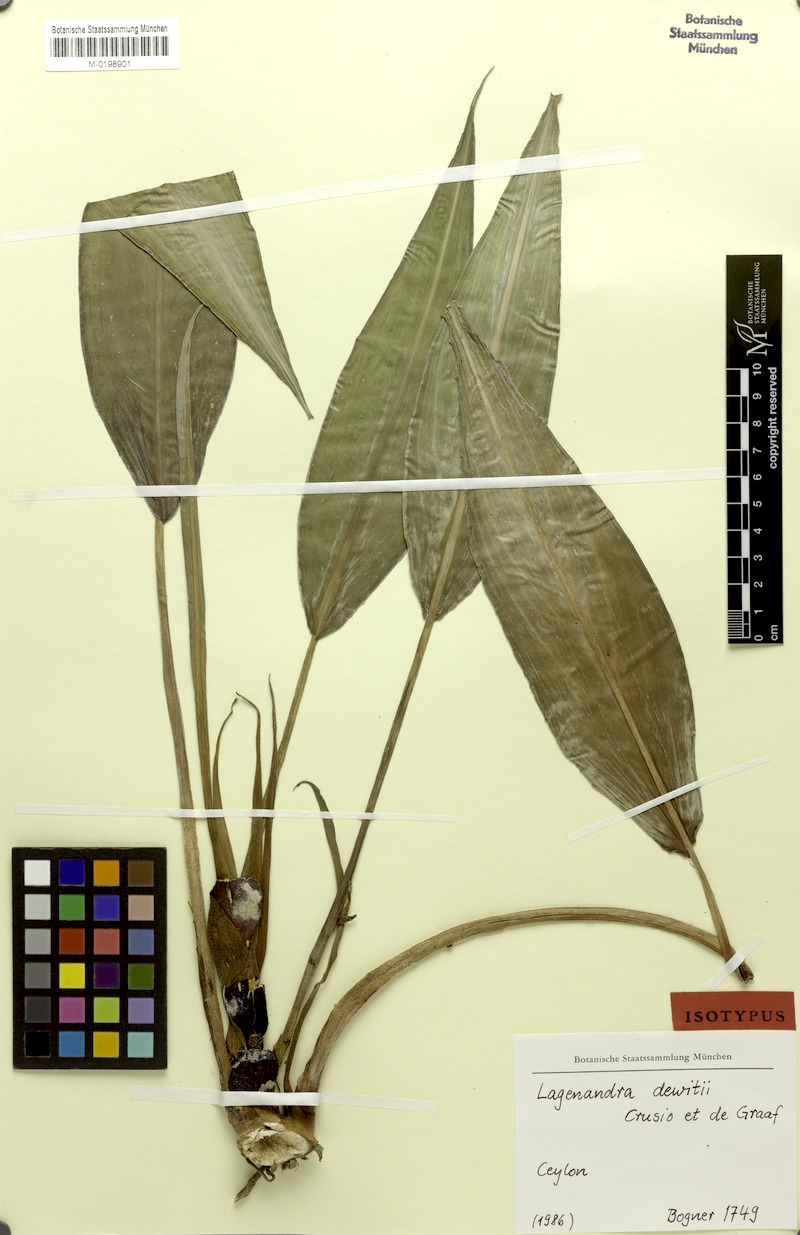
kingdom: Plantae
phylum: Tracheophyta
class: Liliopsida
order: Alismatales
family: Araceae
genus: Lagenandra
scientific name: Lagenandra dewitii
